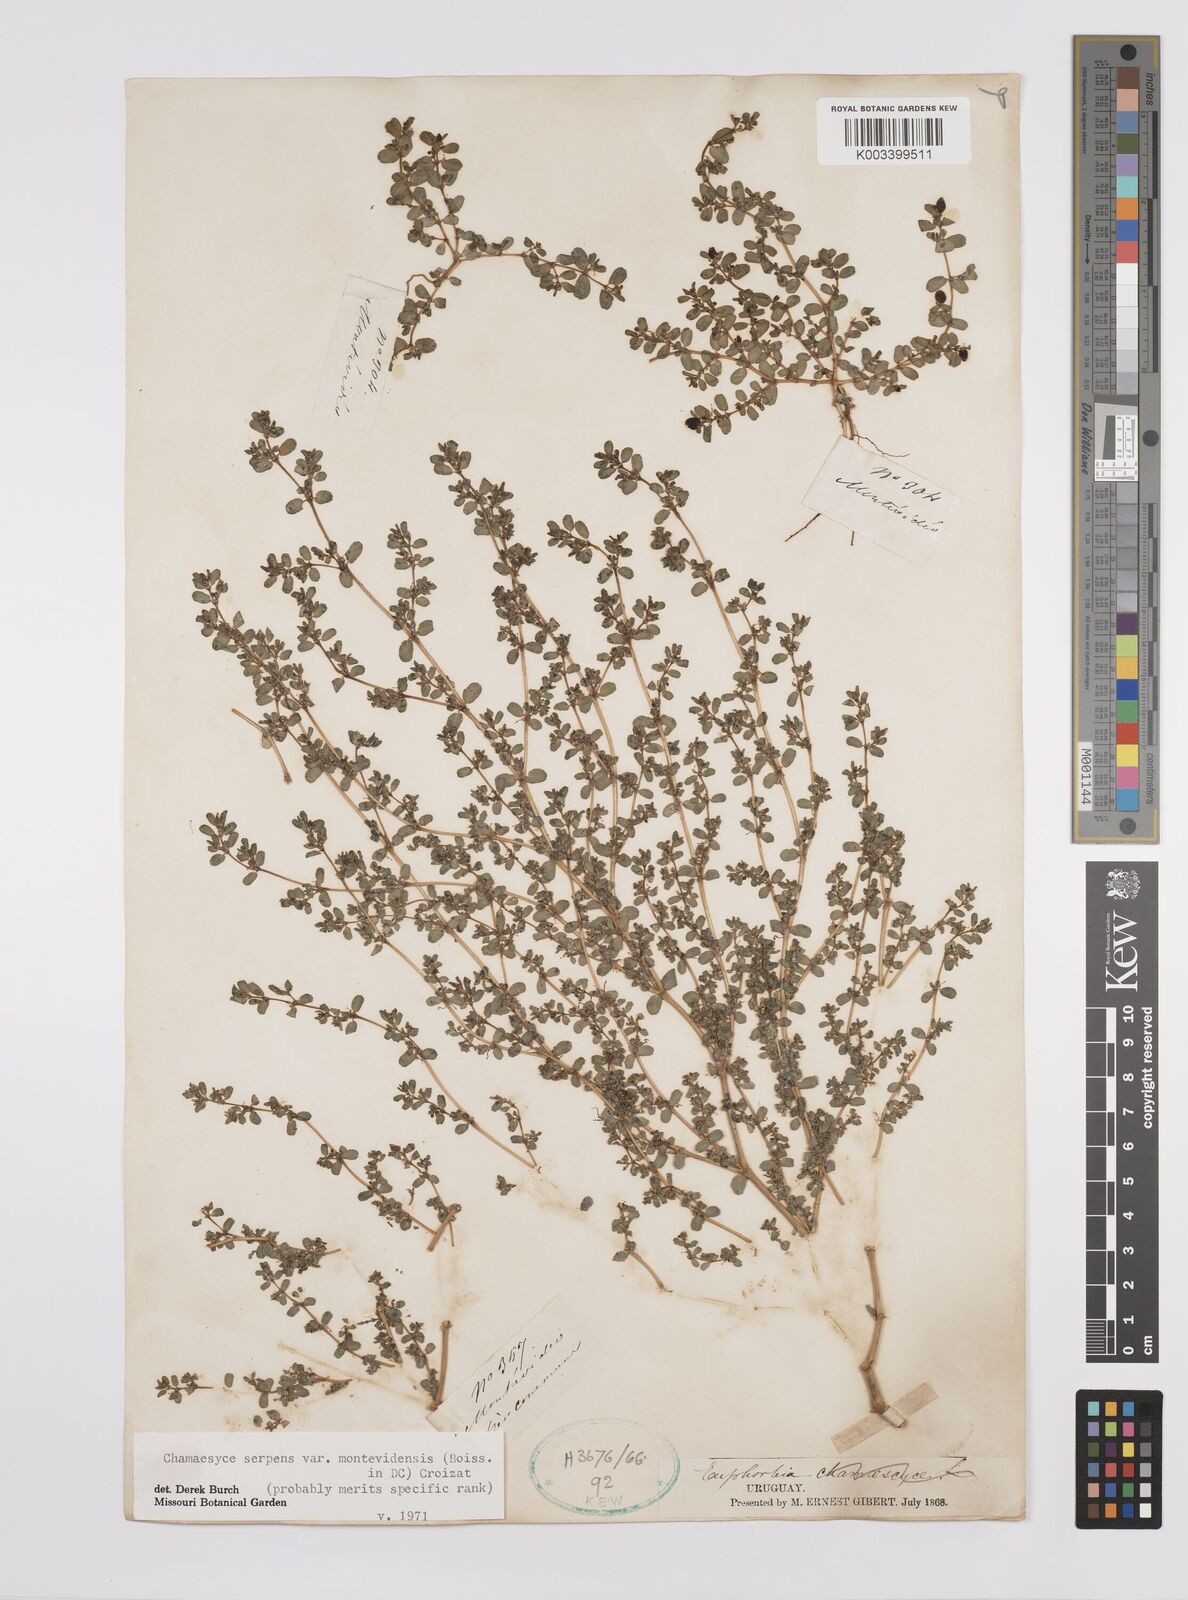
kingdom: Plantae
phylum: Tracheophyta
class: Magnoliopsida
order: Malpighiales
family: Euphorbiaceae
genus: Euphorbia
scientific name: Euphorbia
